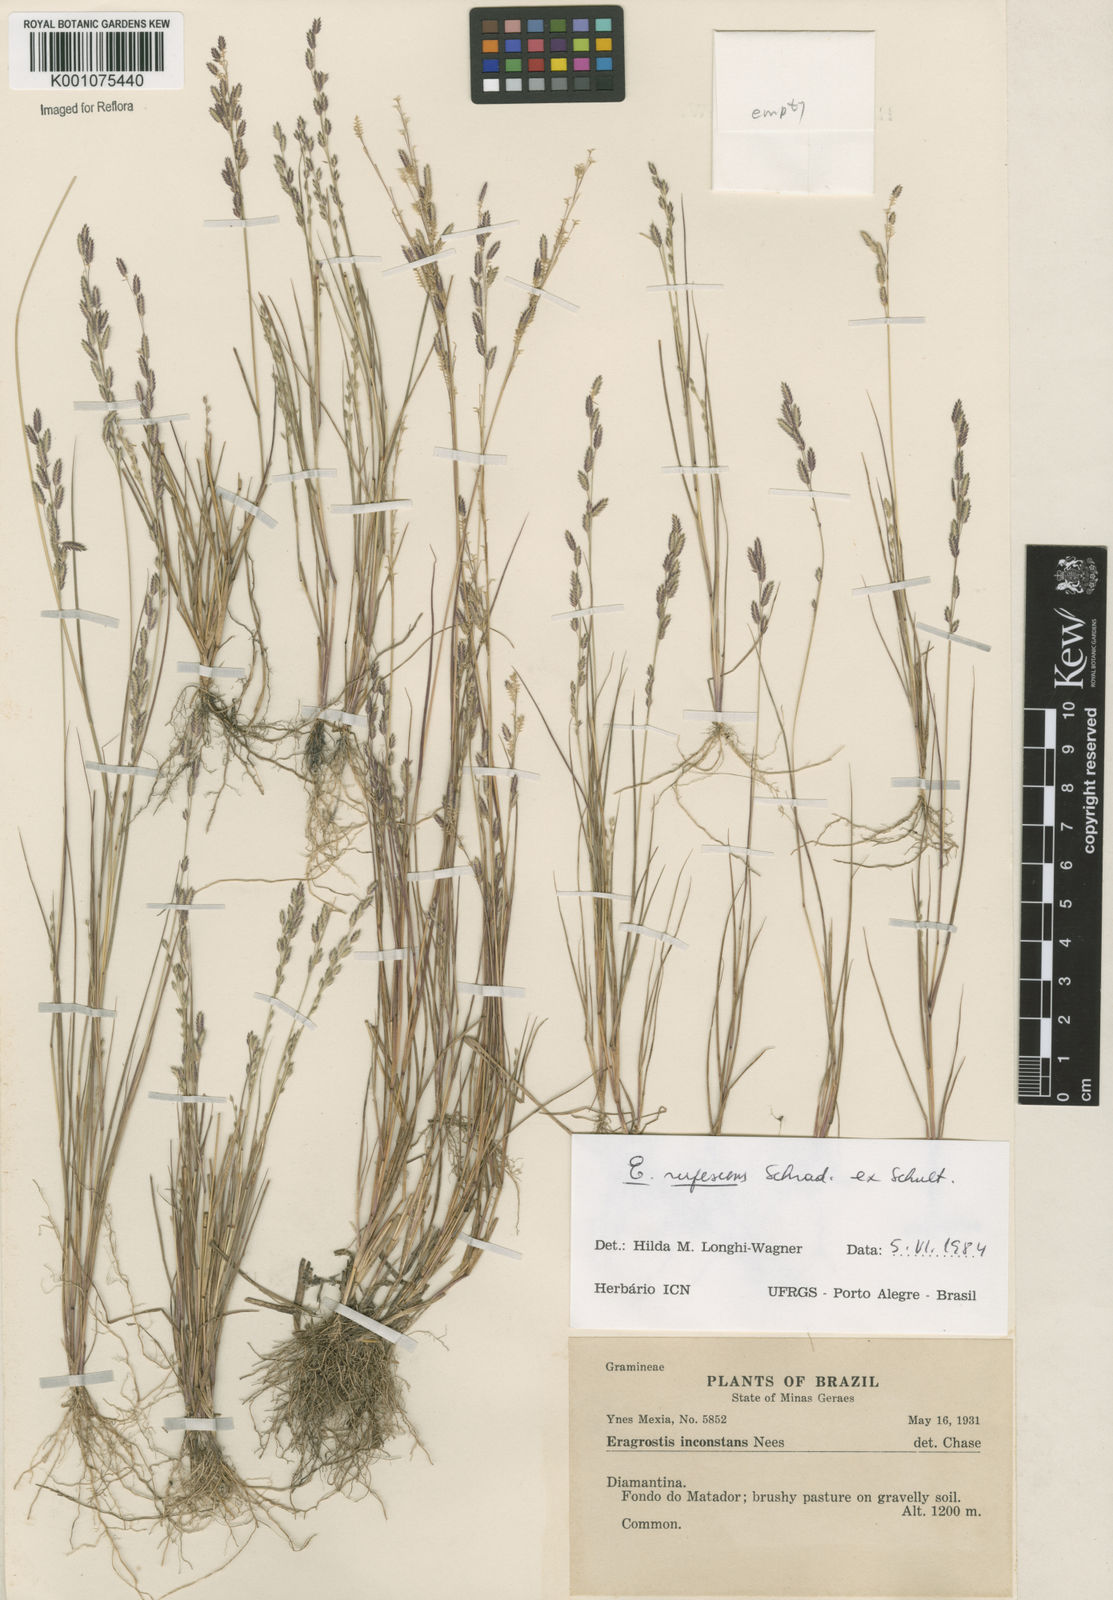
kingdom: Plantae
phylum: Tracheophyta
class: Liliopsida
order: Poales
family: Poaceae
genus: Eragrostis
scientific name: Eragrostis rufescens
